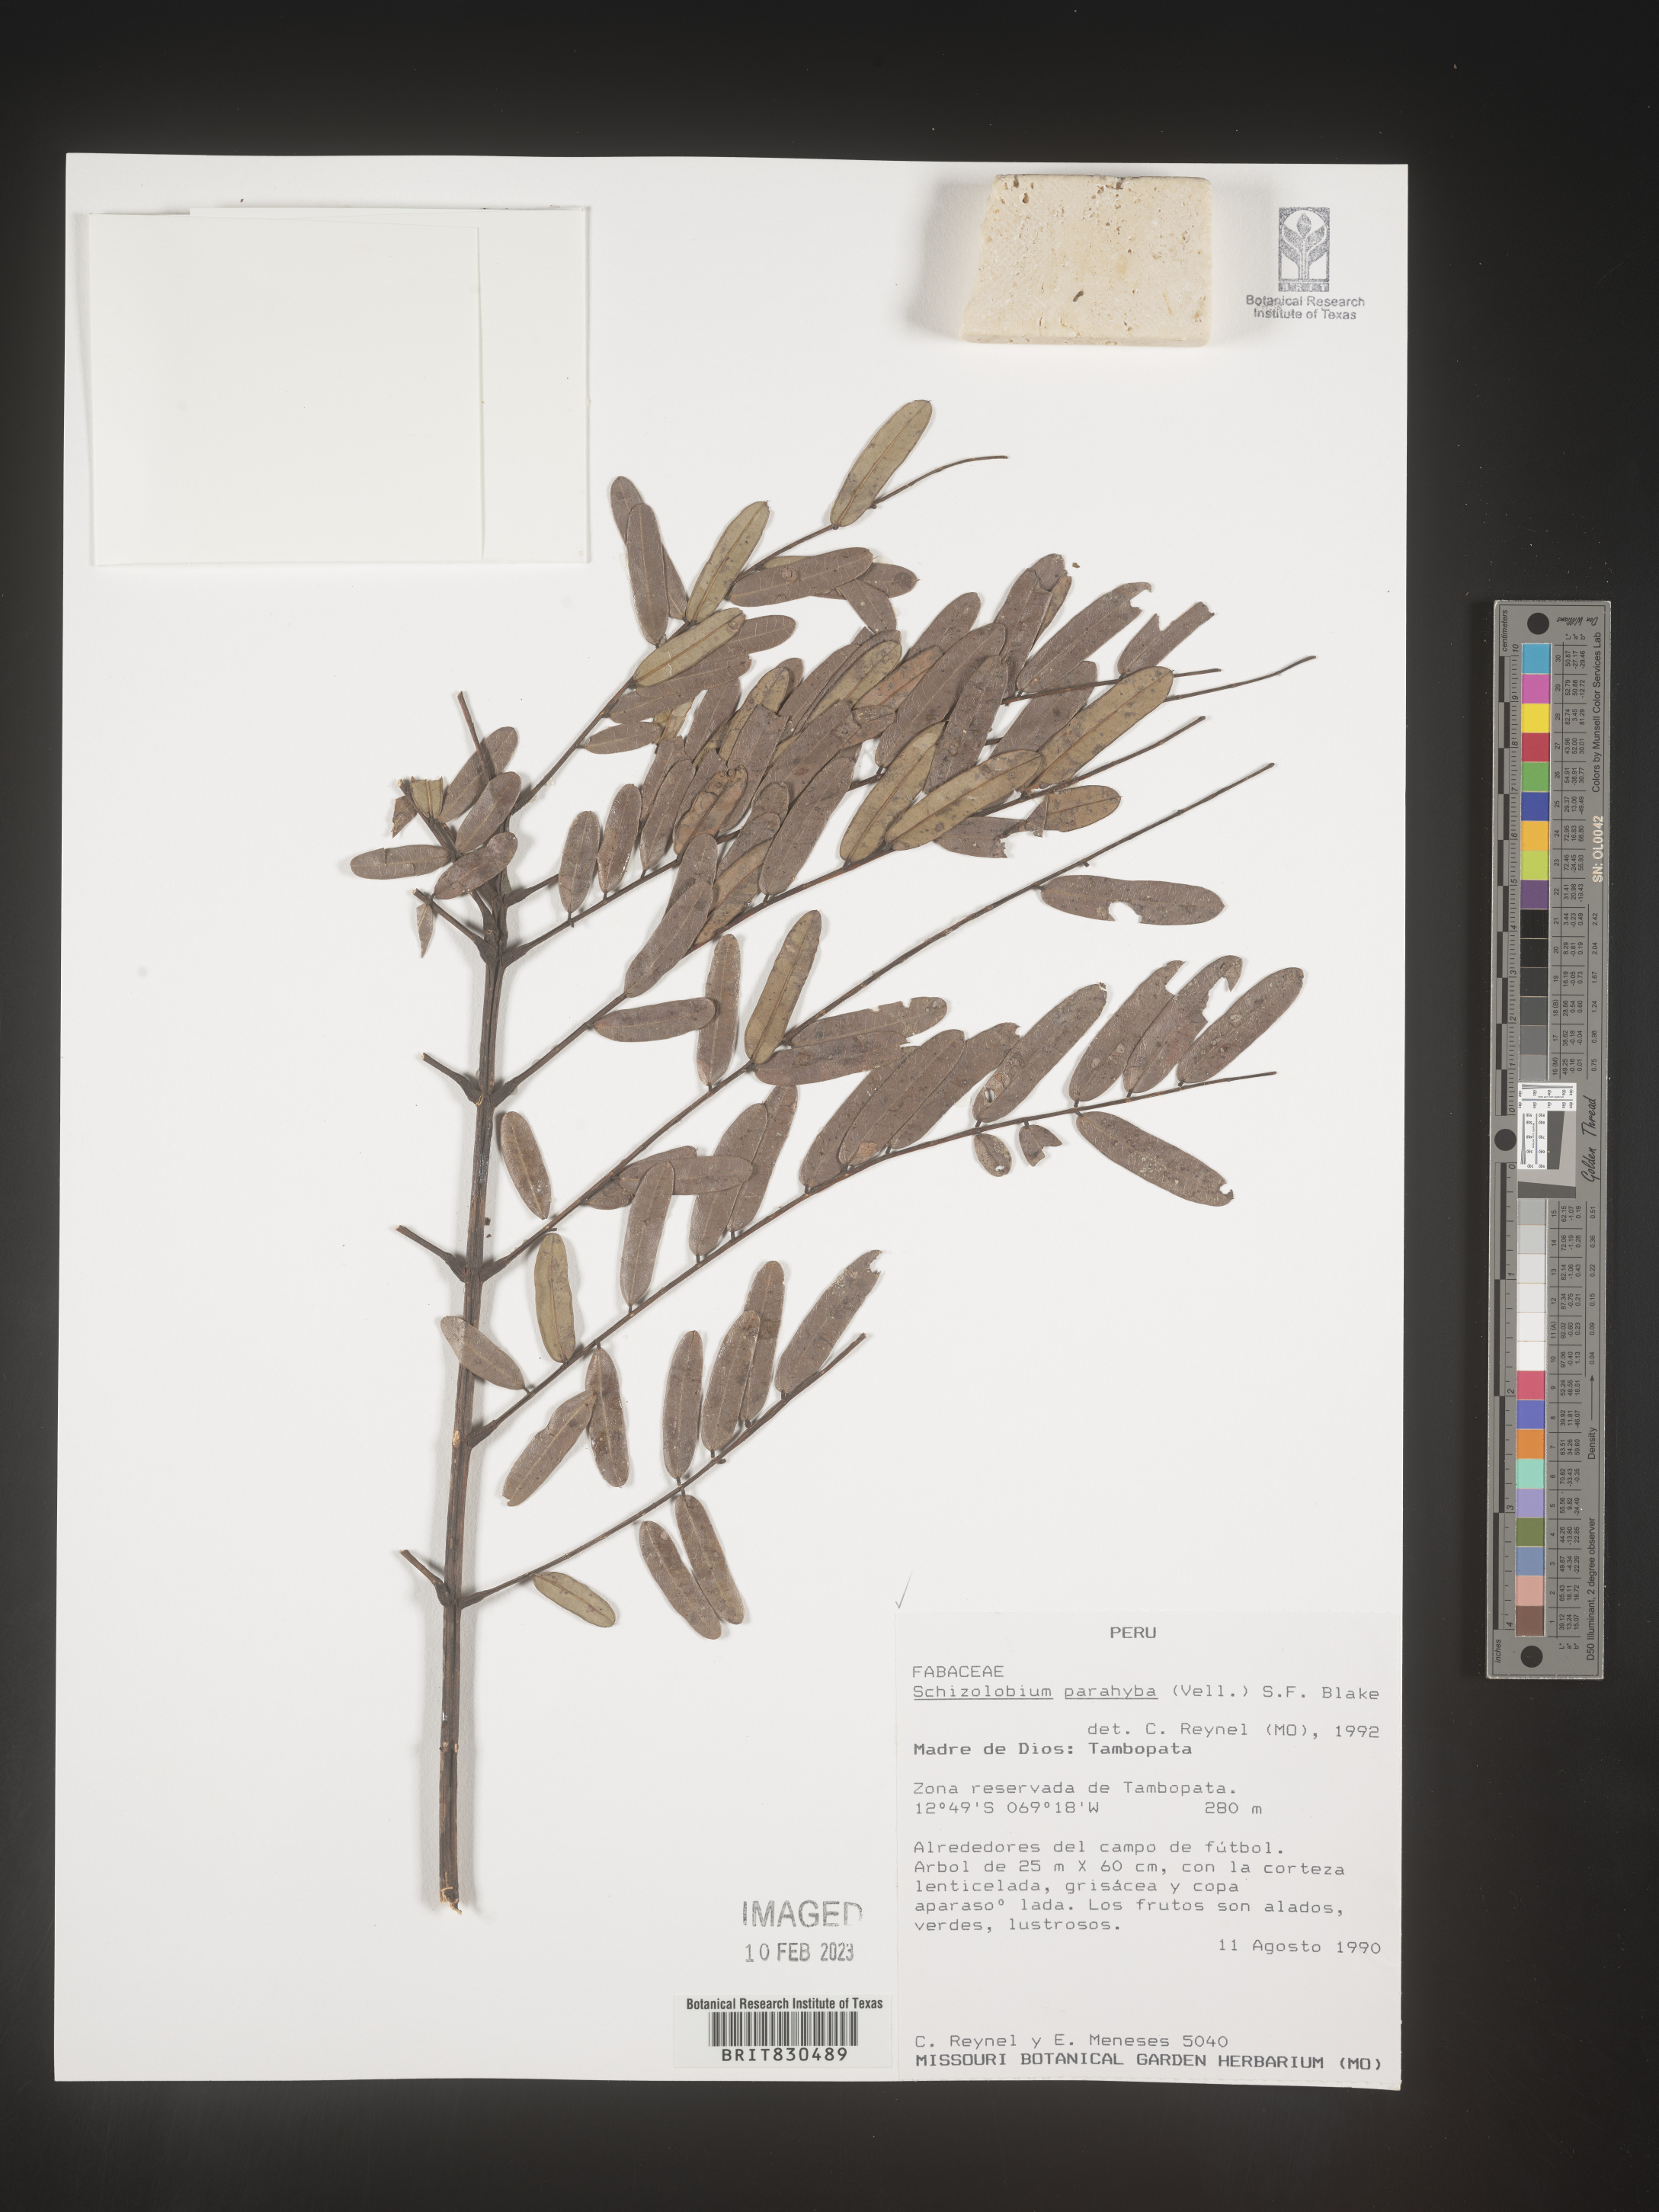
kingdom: Plantae
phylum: Tracheophyta
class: Magnoliopsida
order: Fabales
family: Fabaceae
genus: Schizolobium
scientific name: Schizolobium
